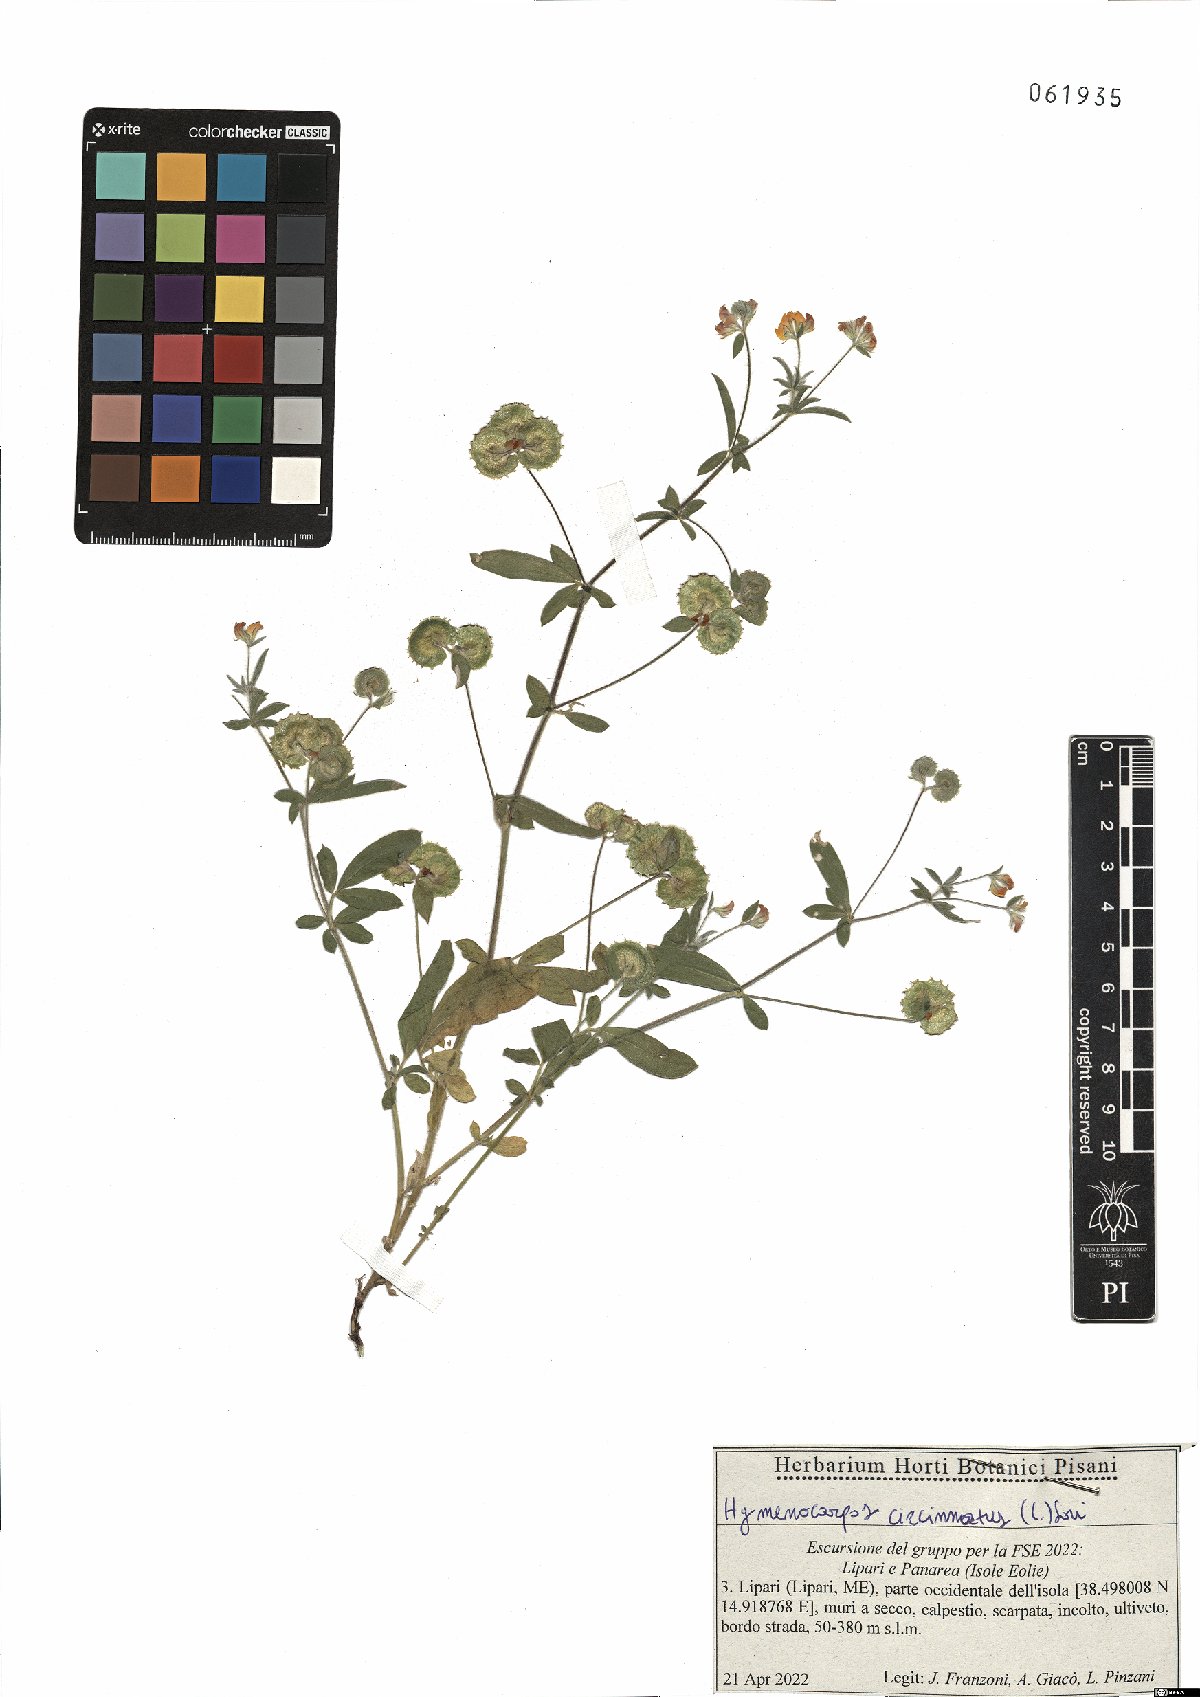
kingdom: Plantae
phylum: Tracheophyta
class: Magnoliopsida
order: Fabales
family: Fabaceae
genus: Anthyllis
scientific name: Anthyllis circinnata
